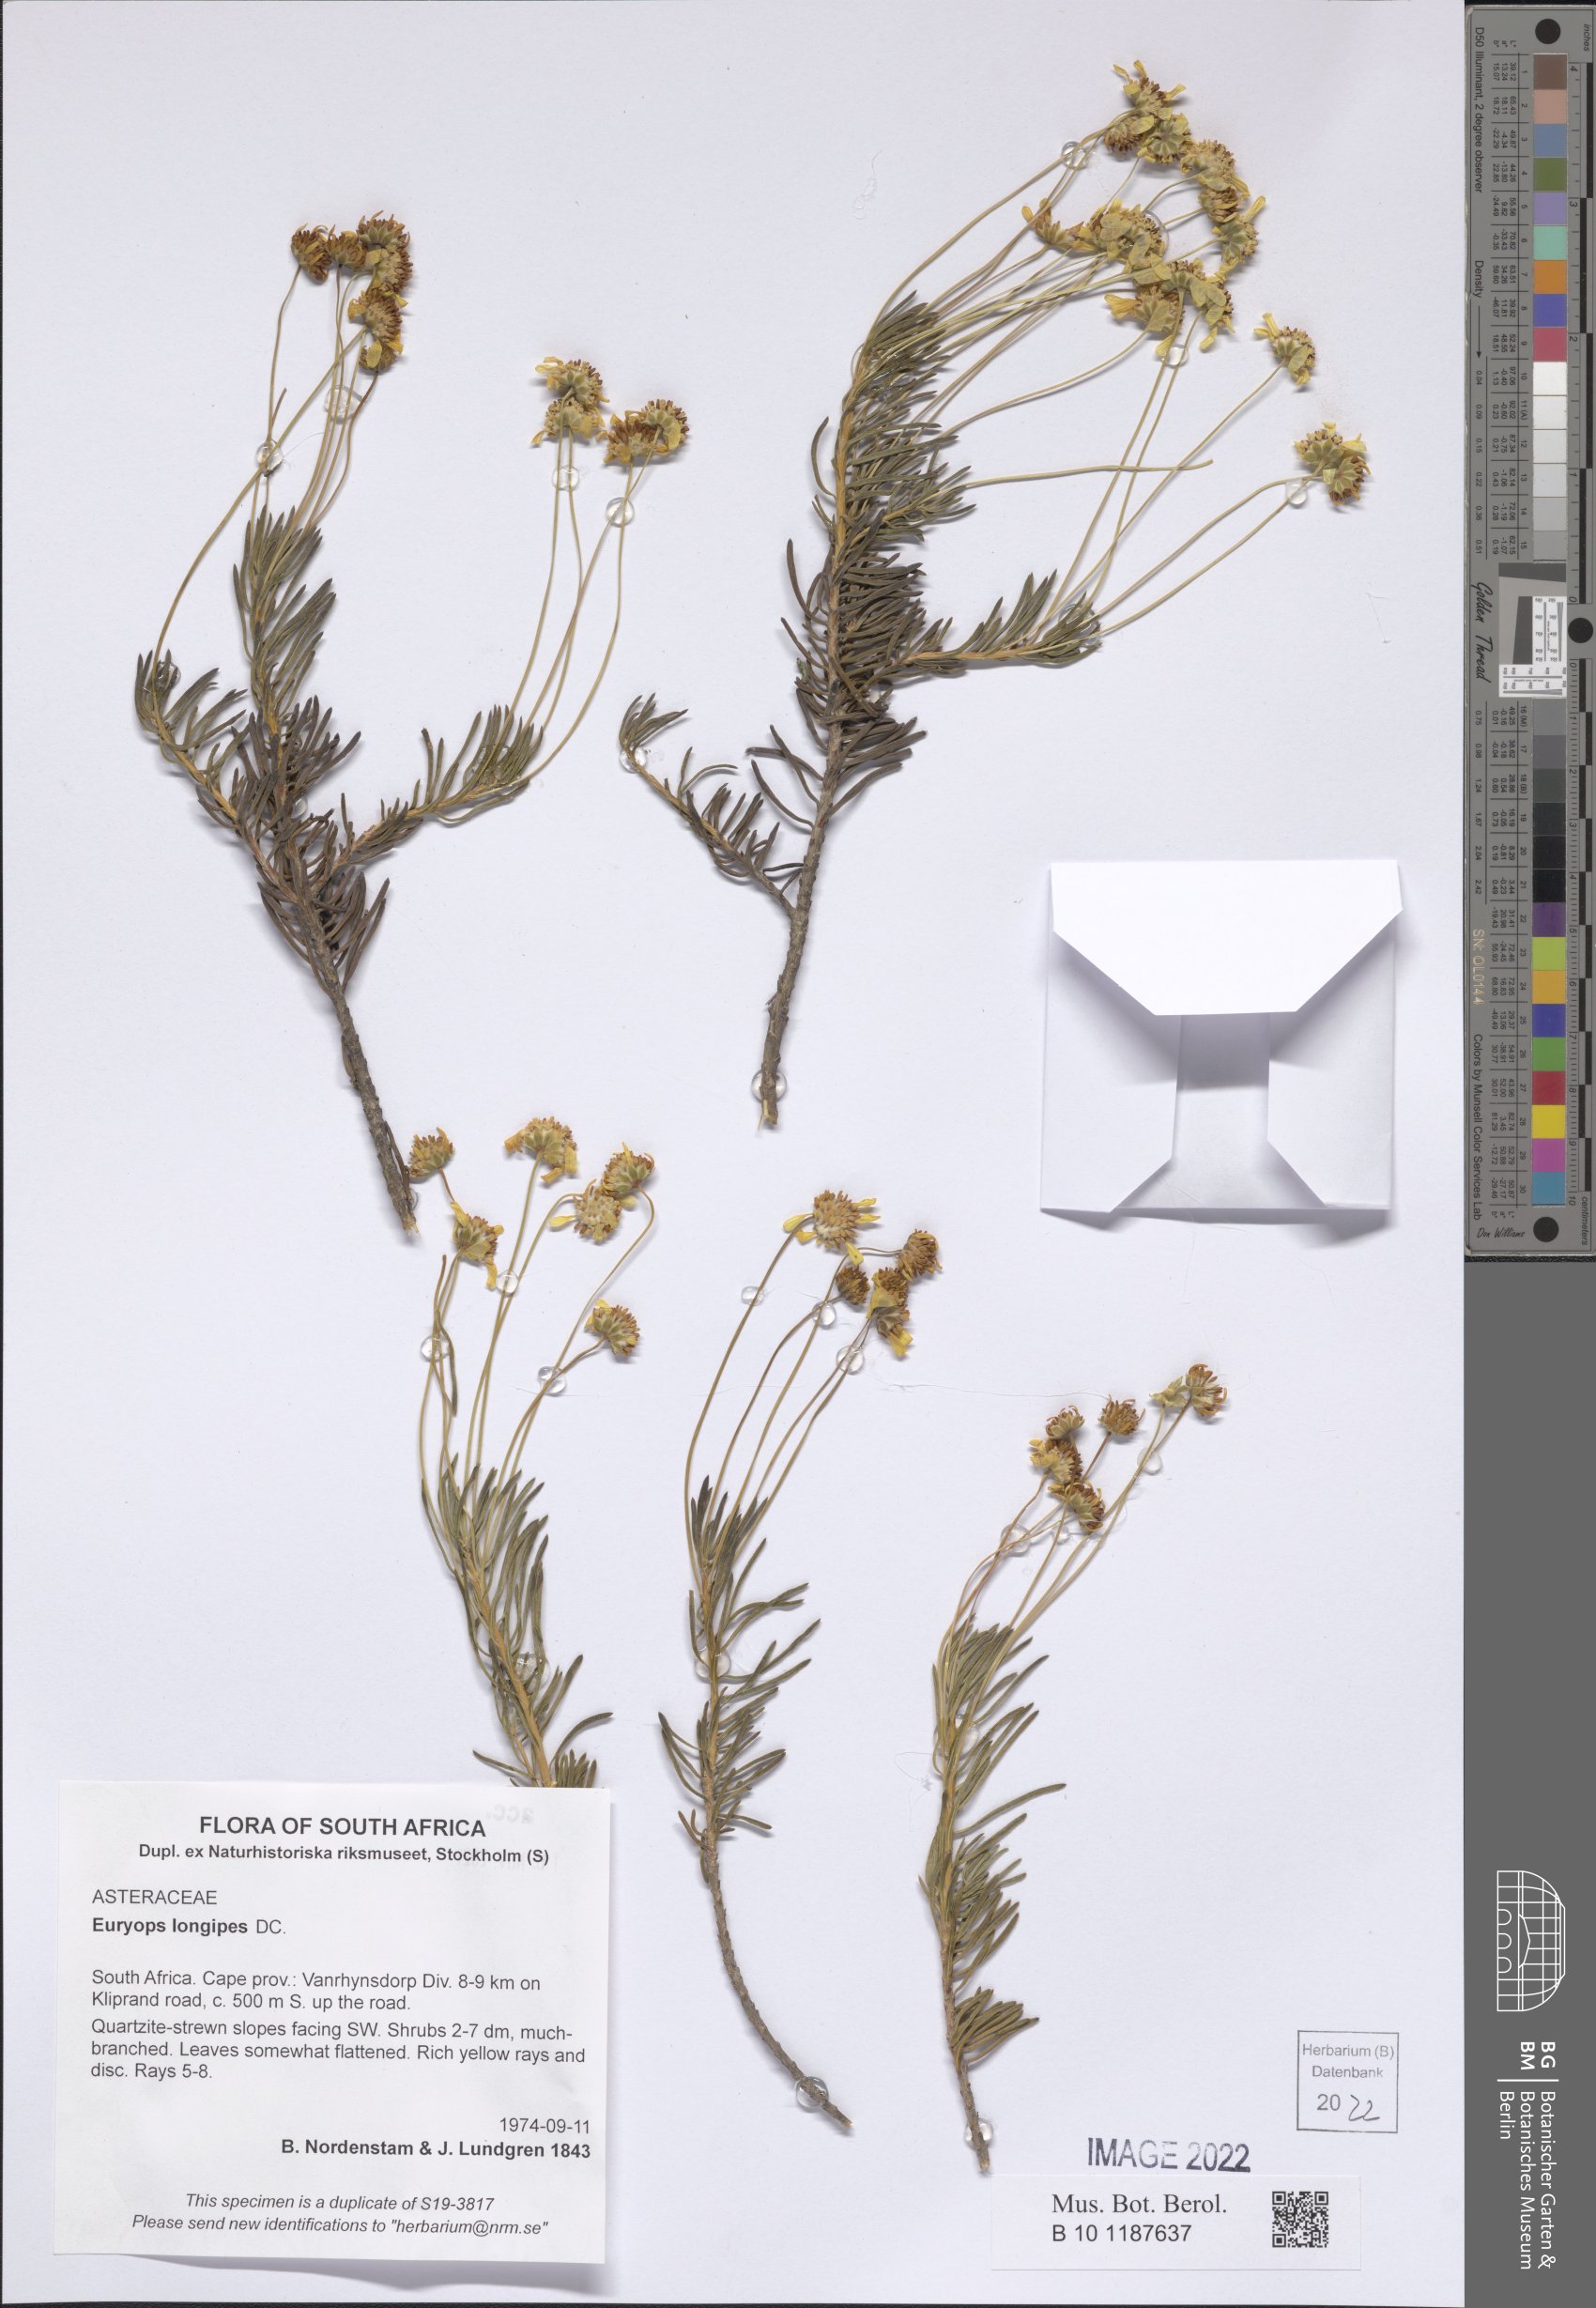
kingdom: Plantae
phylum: Tracheophyta
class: Magnoliopsida
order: Asterales
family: Asteraceae
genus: Euryops
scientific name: Euryops longipes
